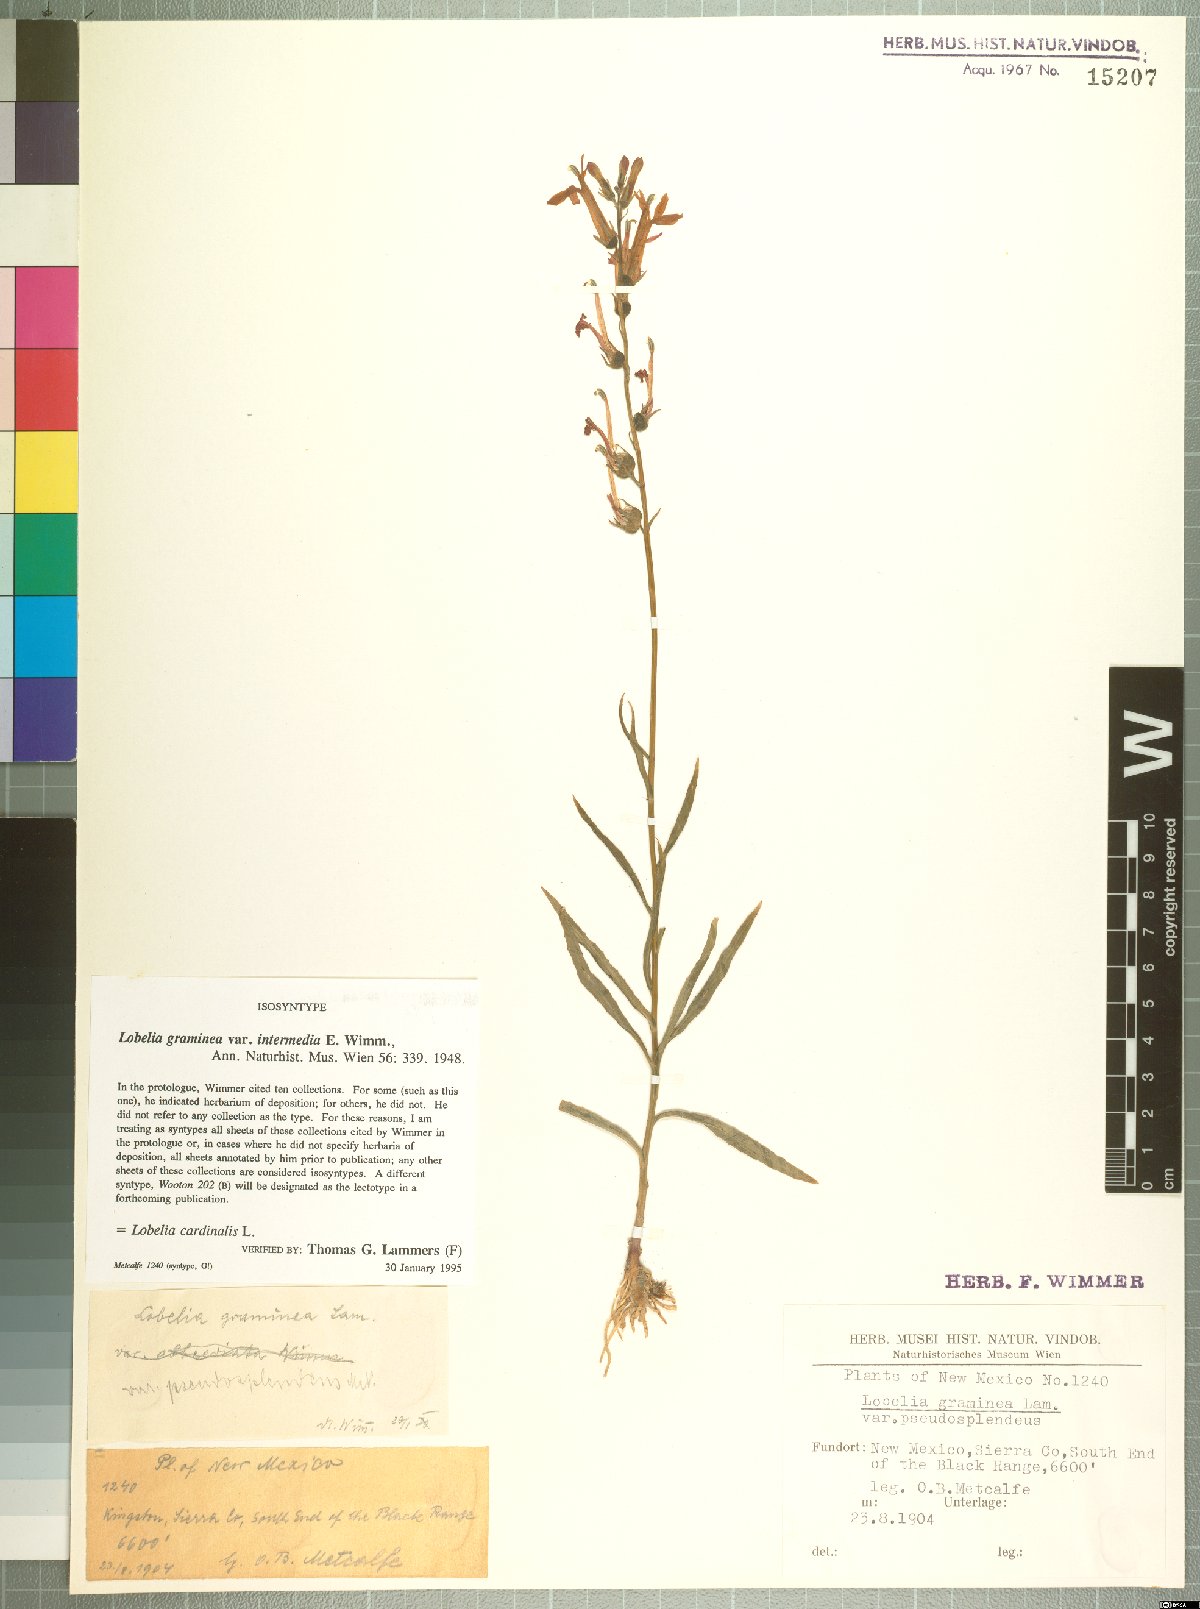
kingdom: Plantae
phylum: Tracheophyta
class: Magnoliopsida
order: Asterales
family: Campanulaceae
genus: Lobelia
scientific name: Lobelia cardinalis
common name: Cardinal flower
